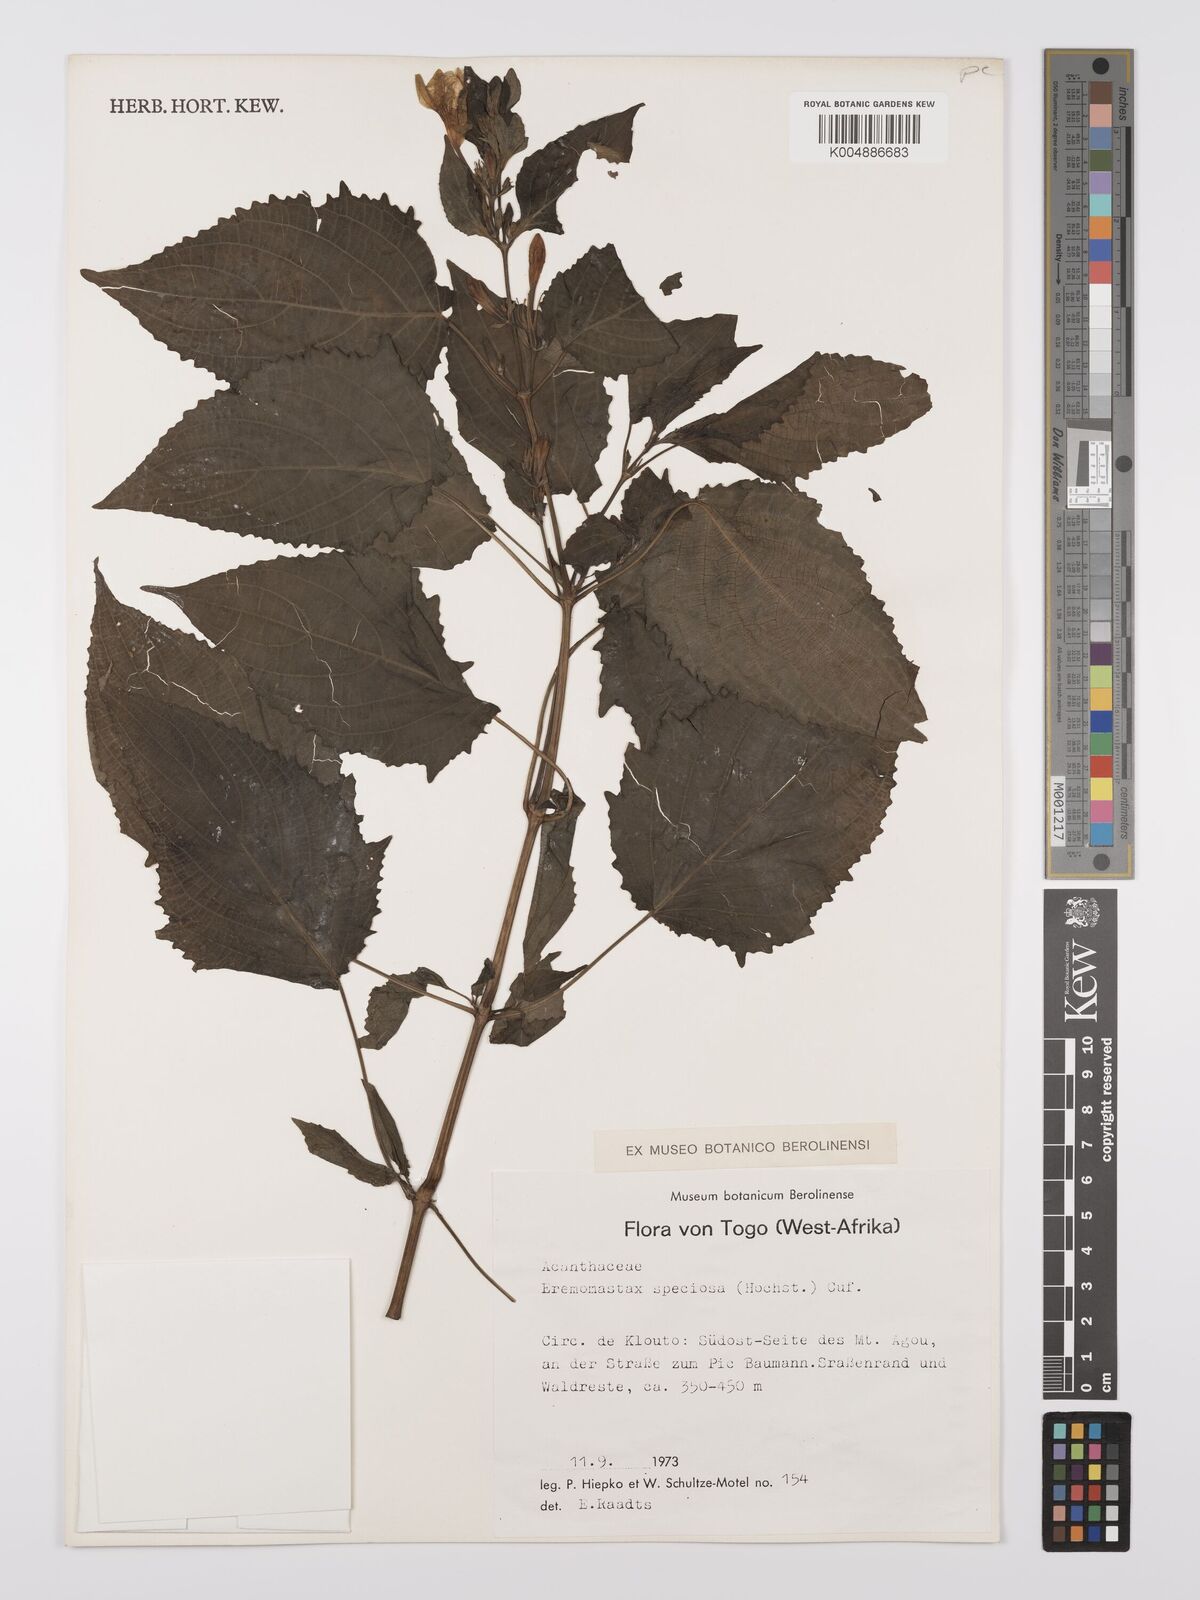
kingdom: Plantae
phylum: Tracheophyta
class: Magnoliopsida
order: Lamiales
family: Acanthaceae
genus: Eremomastax
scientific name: Eremomastax speciosa
